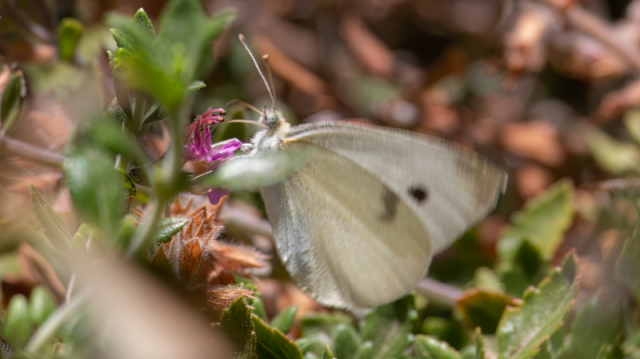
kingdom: Animalia
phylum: Arthropoda
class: Insecta
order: Lepidoptera
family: Pieridae
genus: Pieris
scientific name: Pieris rapae
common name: Cabbage White
